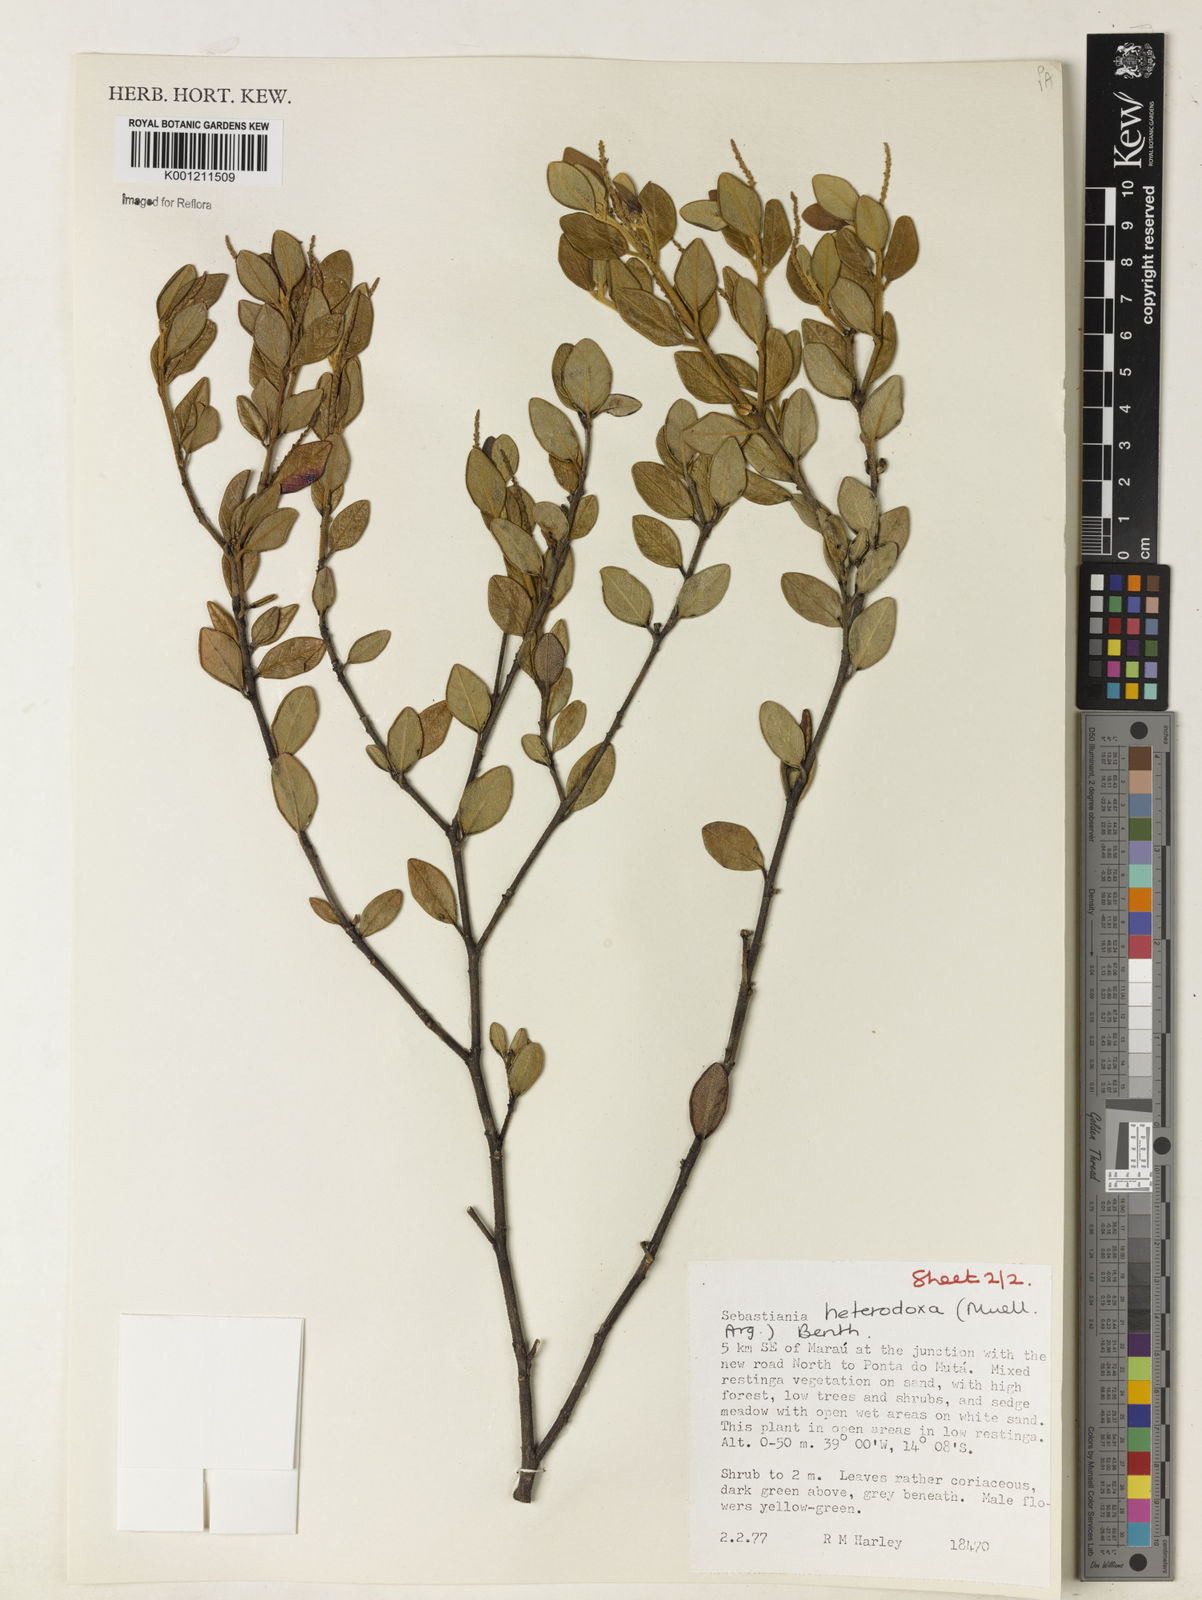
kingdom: Plantae
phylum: Tracheophyta
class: Magnoliopsida
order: Malpighiales
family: Euphorbiaceae
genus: Microstachys
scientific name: Microstachys
